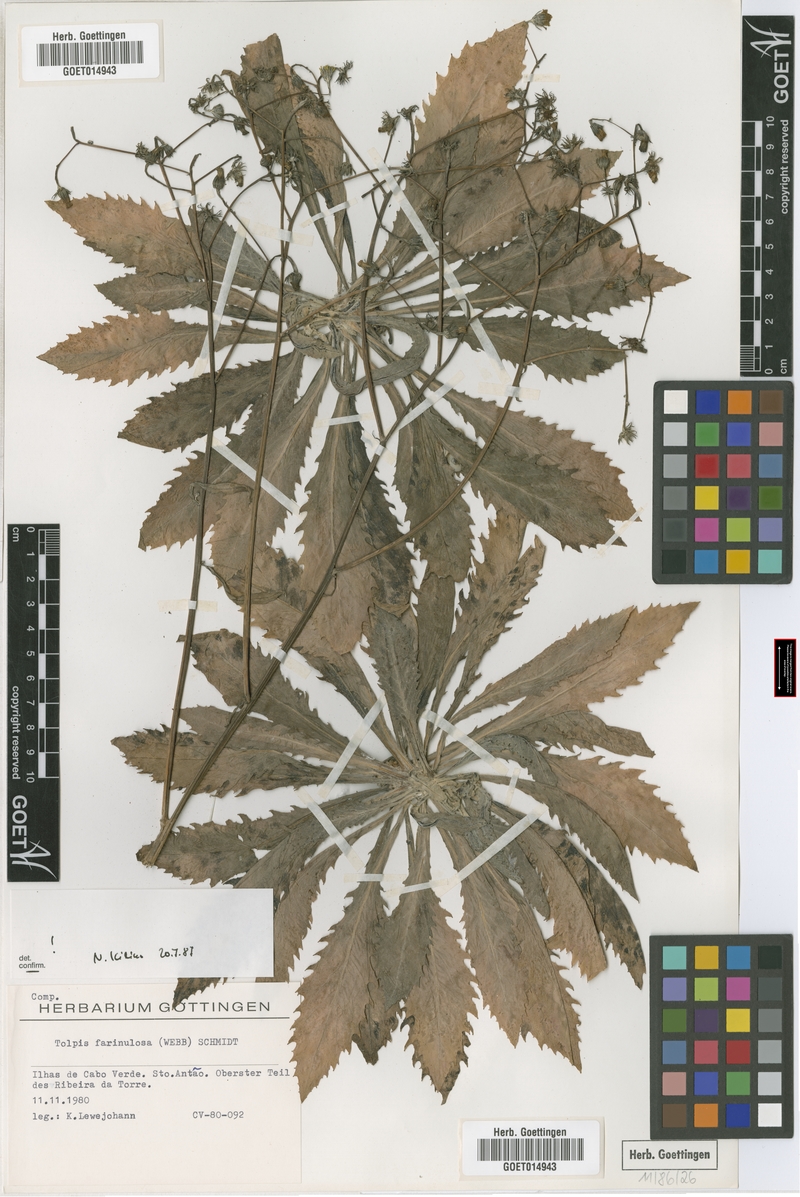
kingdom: Plantae
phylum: Tracheophyta
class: Magnoliopsida
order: Asterales
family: Asteraceae
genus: Tolpis
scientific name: Tolpis farinulosa
